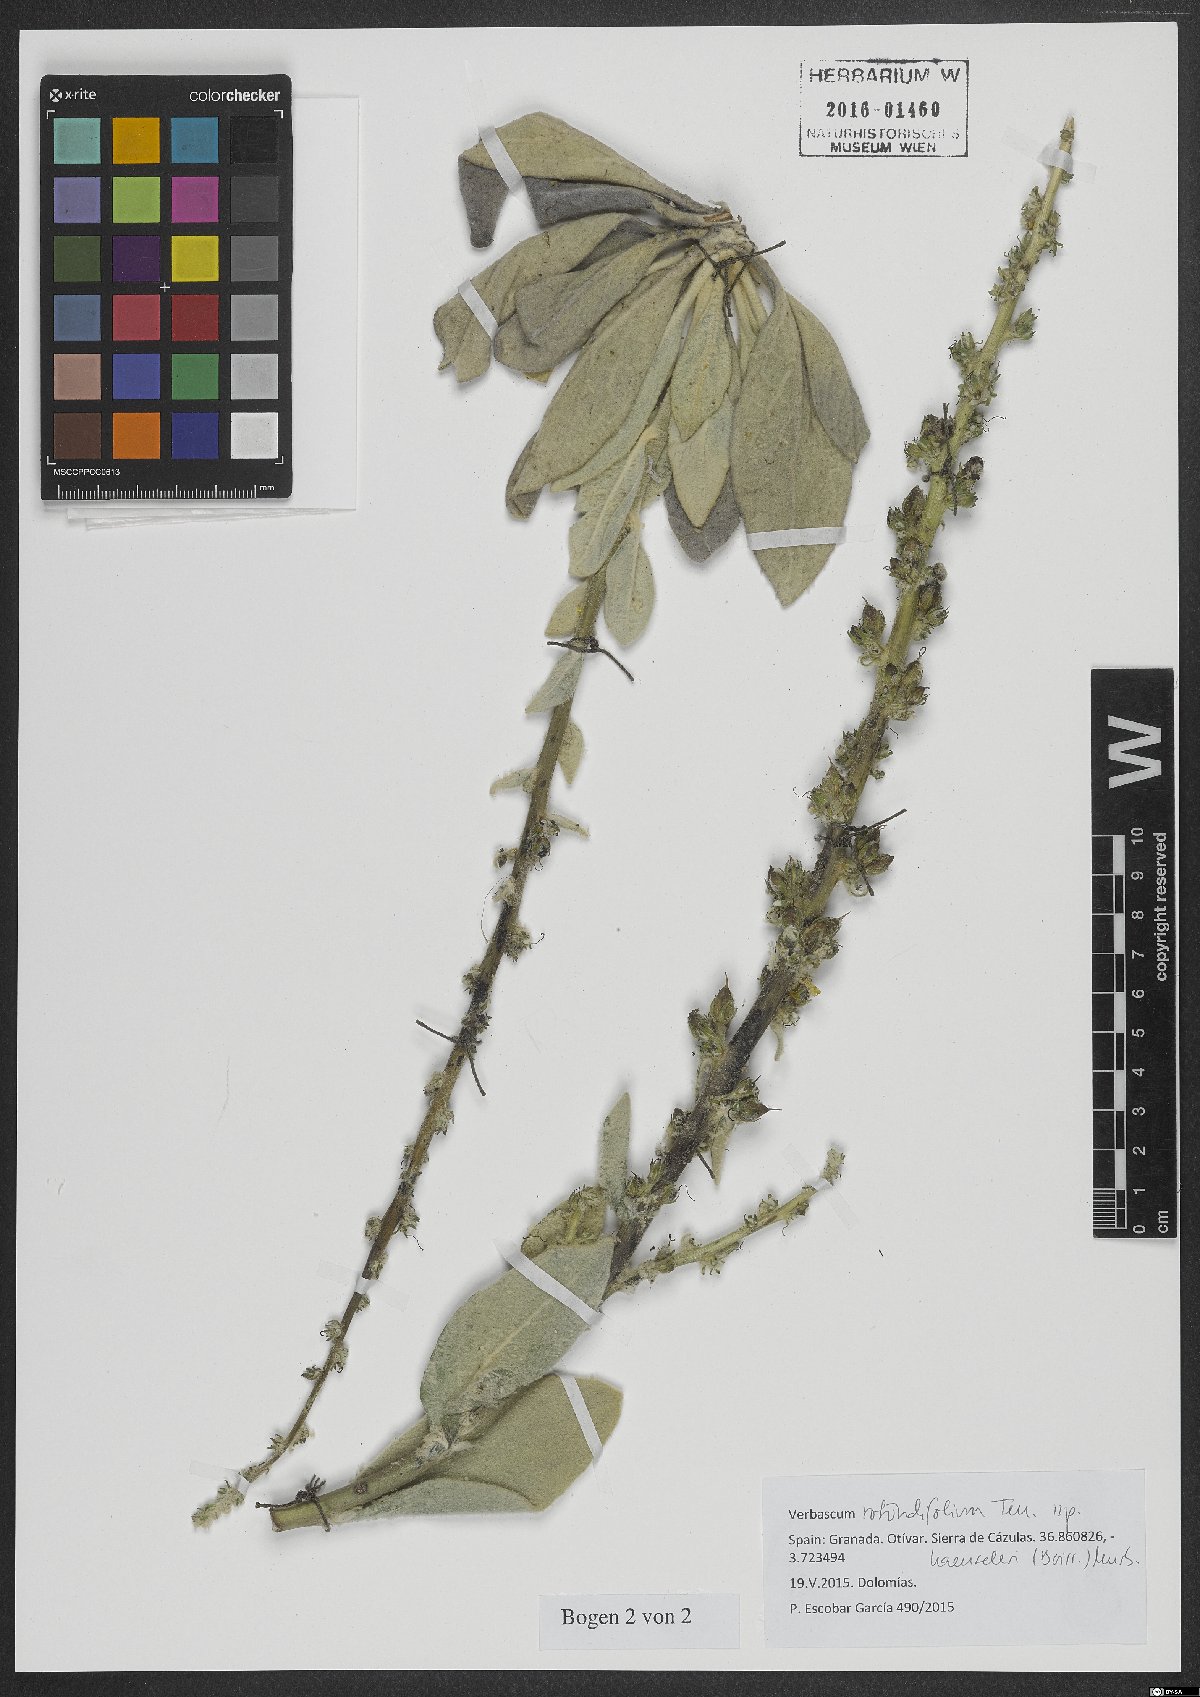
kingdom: Plantae
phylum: Tracheophyta
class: Magnoliopsida
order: Lamiales
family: Scrophulariaceae
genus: Verbascum
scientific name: Verbascum rotundifolium
